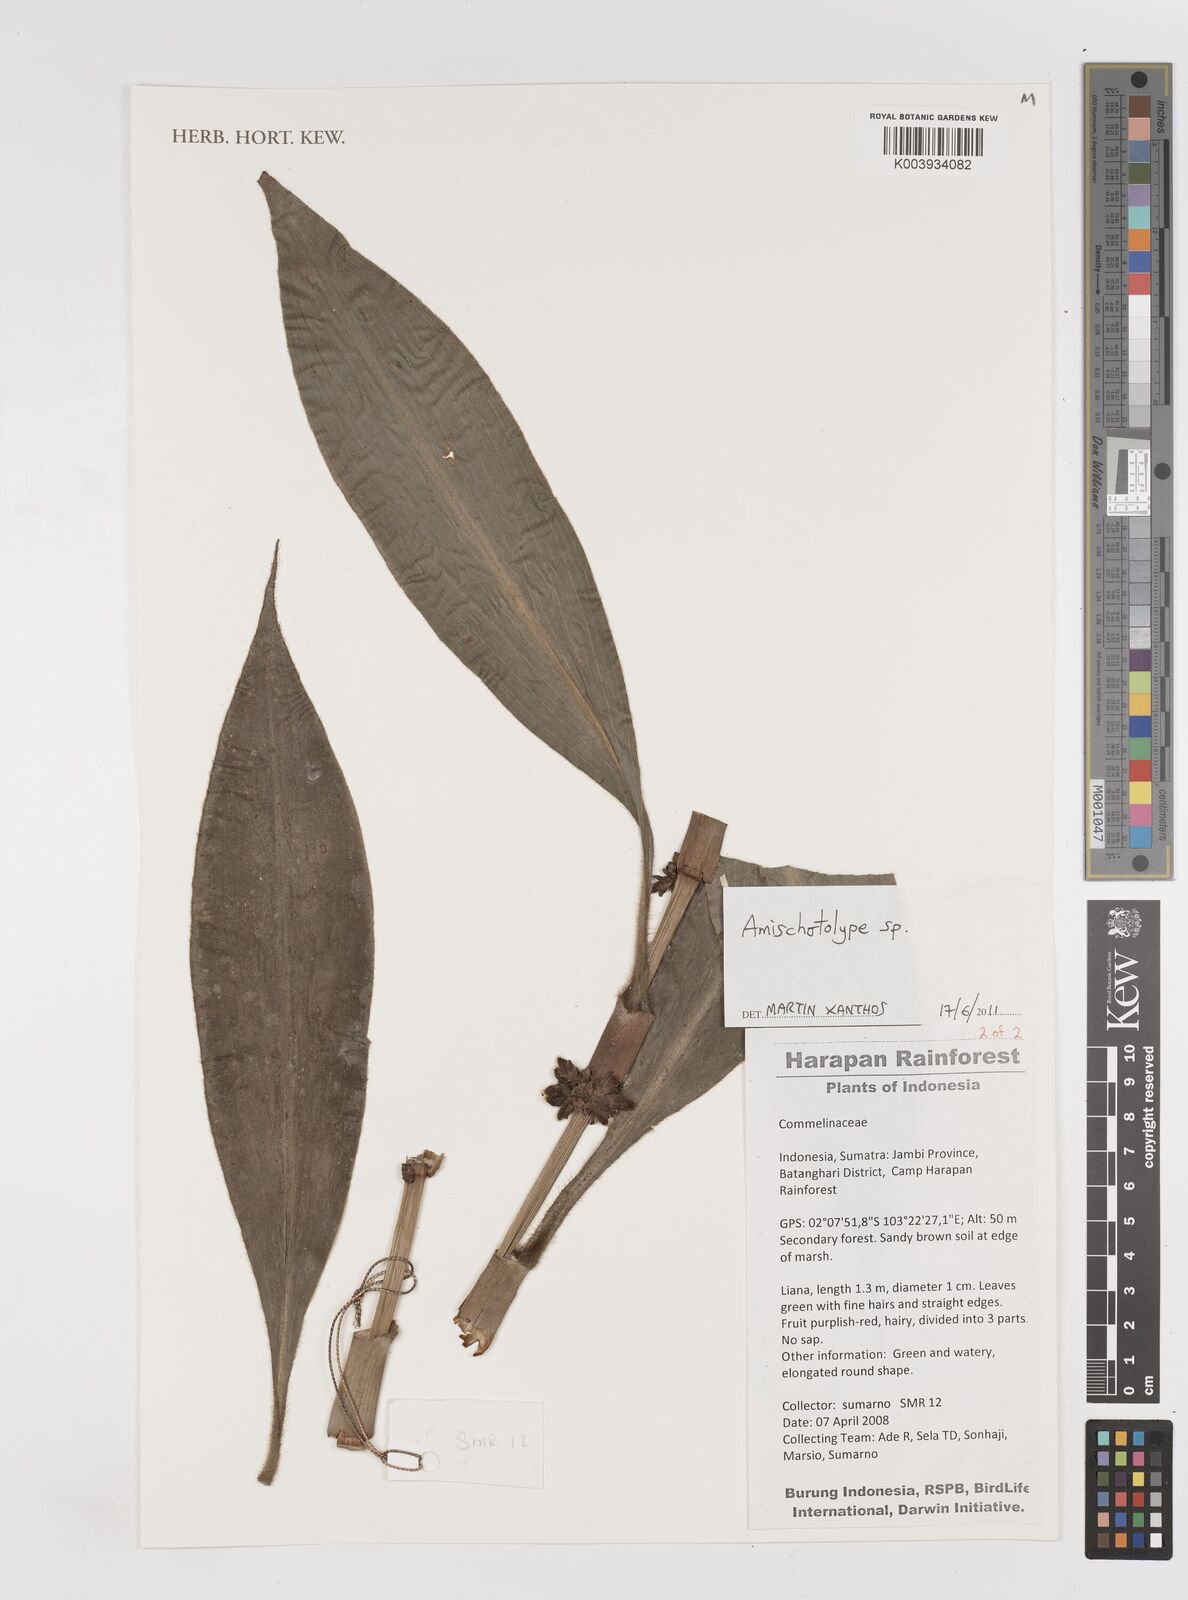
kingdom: Plantae
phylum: Tracheophyta
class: Liliopsida
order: Commelinales
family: Commelinaceae
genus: Amischotolype
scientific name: Amischotolype
